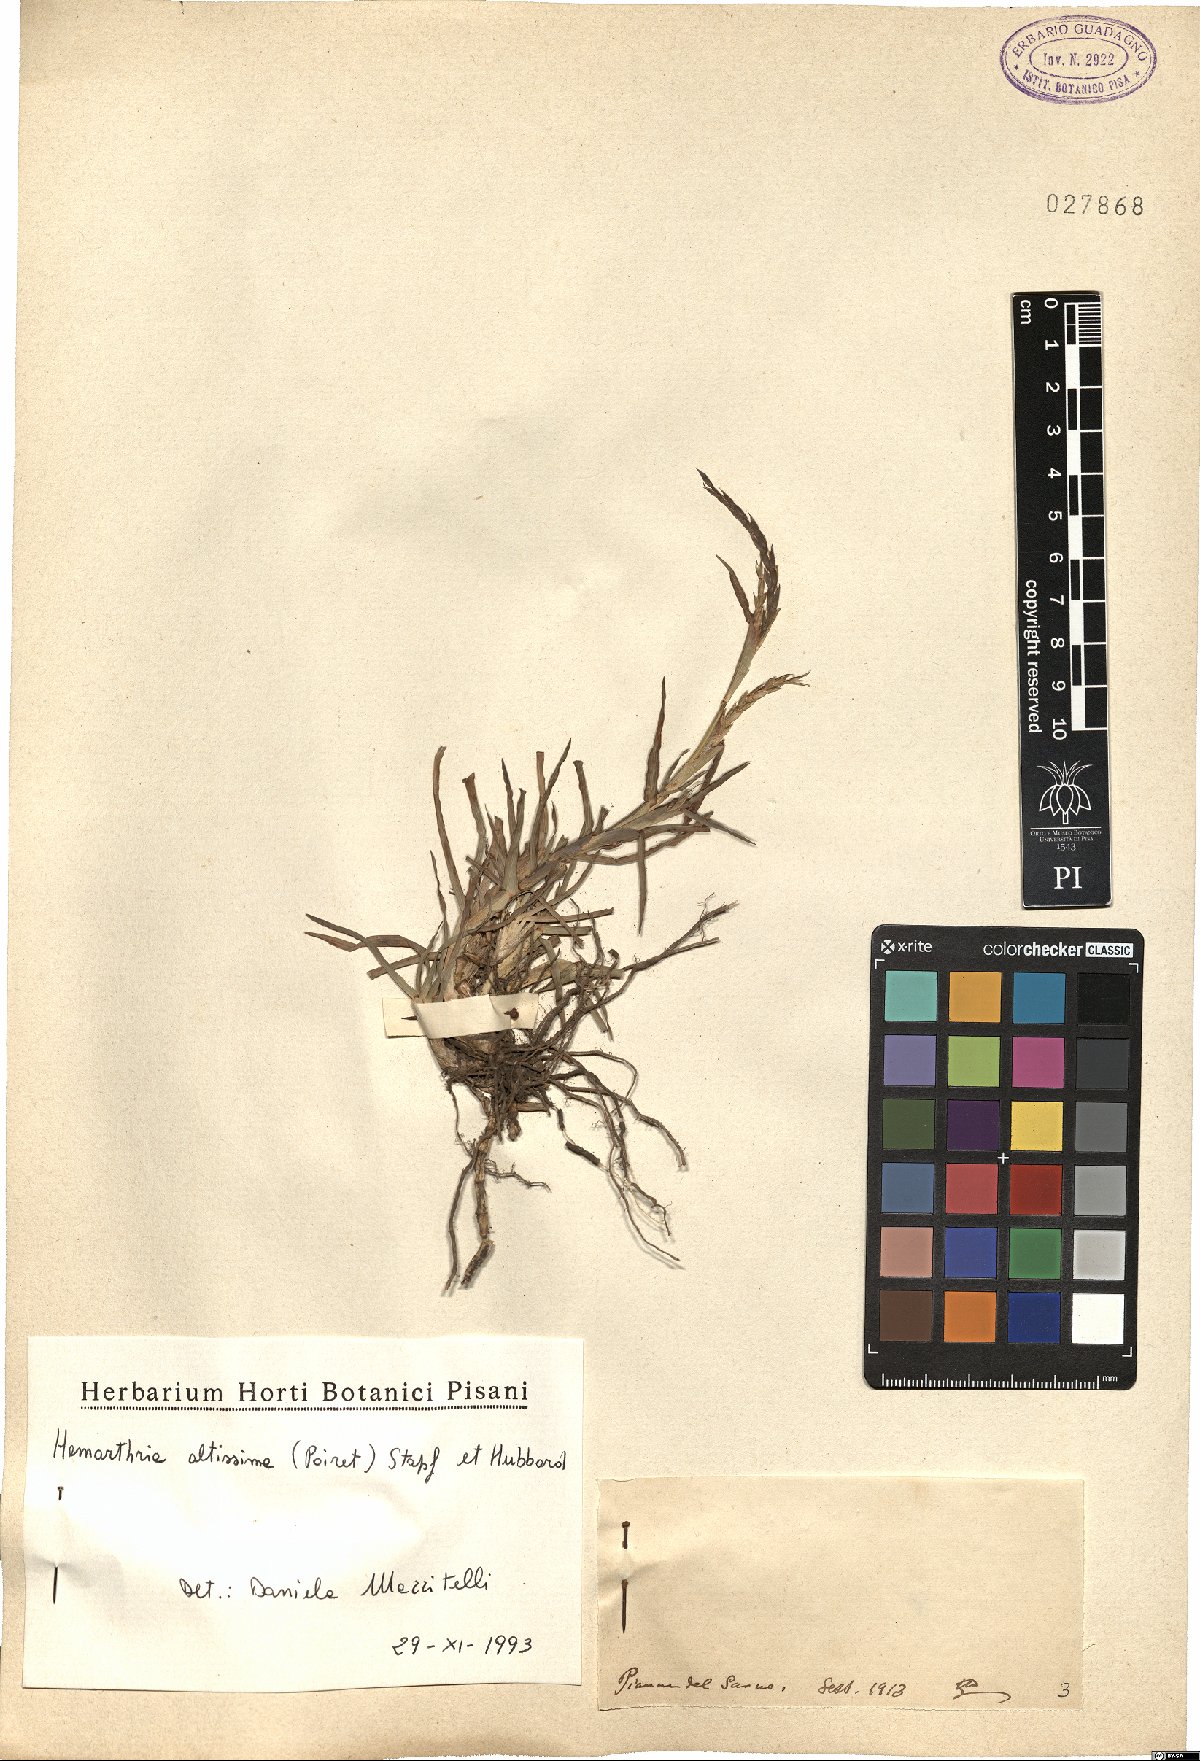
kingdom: Plantae
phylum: Tracheophyta
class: Liliopsida
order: Poales
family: Poaceae
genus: Hemarthria
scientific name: Hemarthria altissima
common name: African jointgrass
